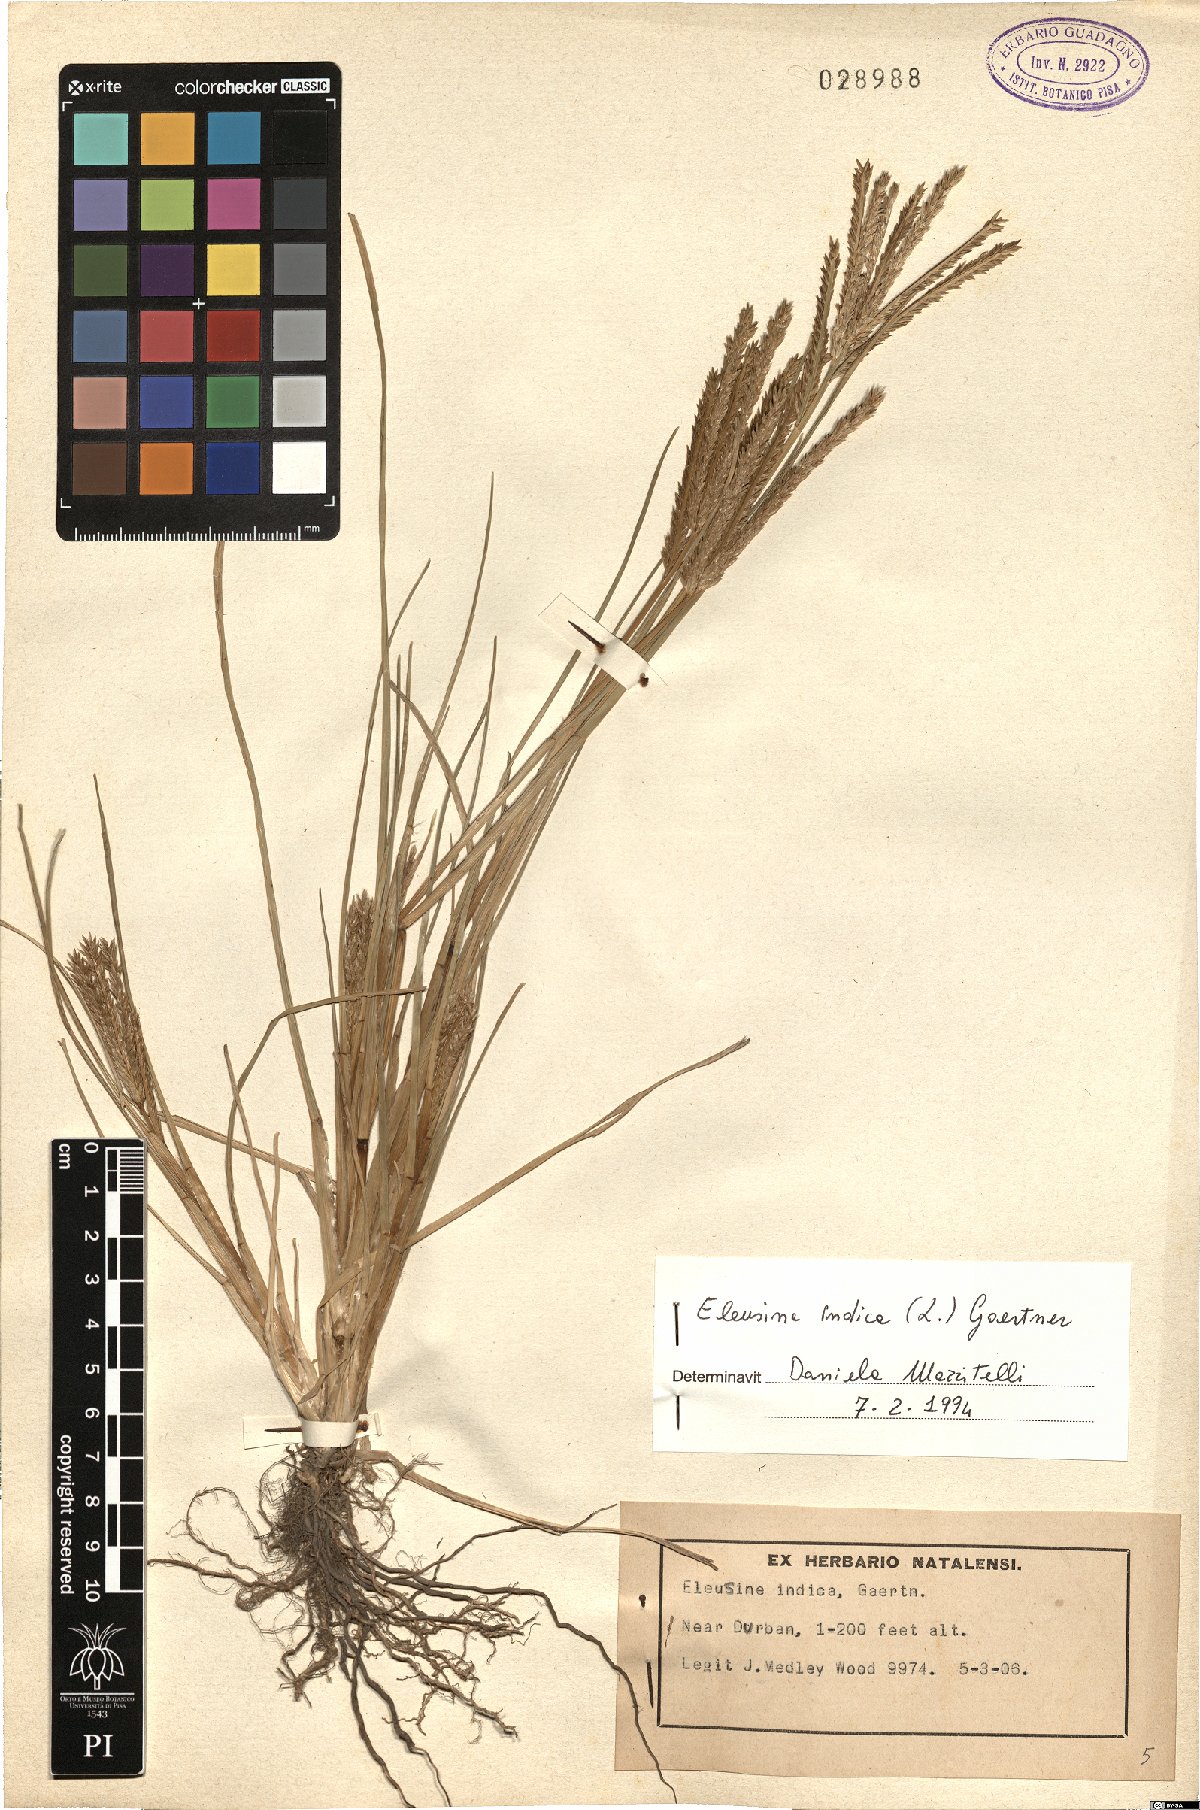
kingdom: Plantae
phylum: Tracheophyta
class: Liliopsida
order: Poales
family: Poaceae
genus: Eleusine
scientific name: Eleusine indica
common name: Yard-grass
